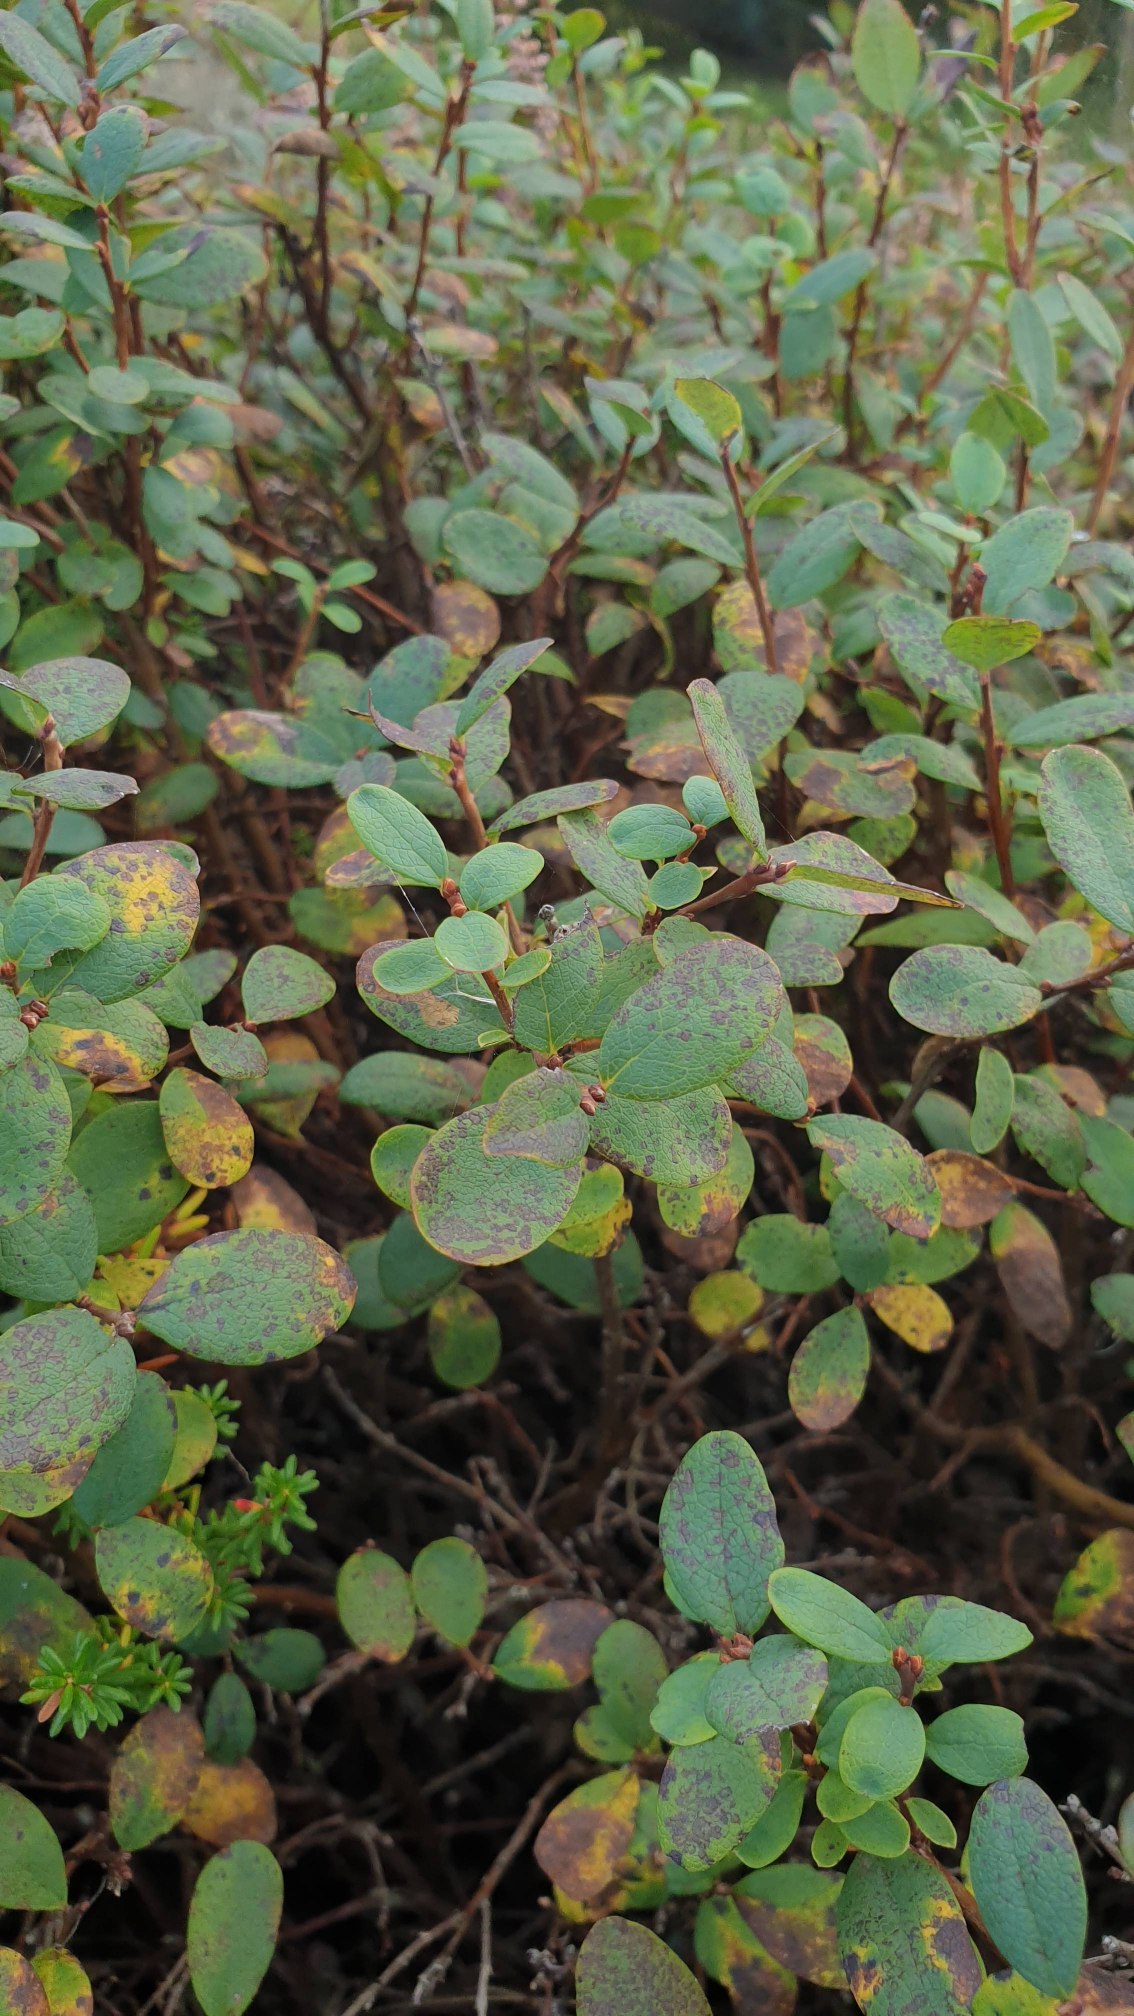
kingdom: Plantae
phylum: Tracheophyta
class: Magnoliopsida
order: Ericales
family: Ericaceae
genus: Vaccinium
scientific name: Vaccinium uliginosum
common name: Mose-bølle
